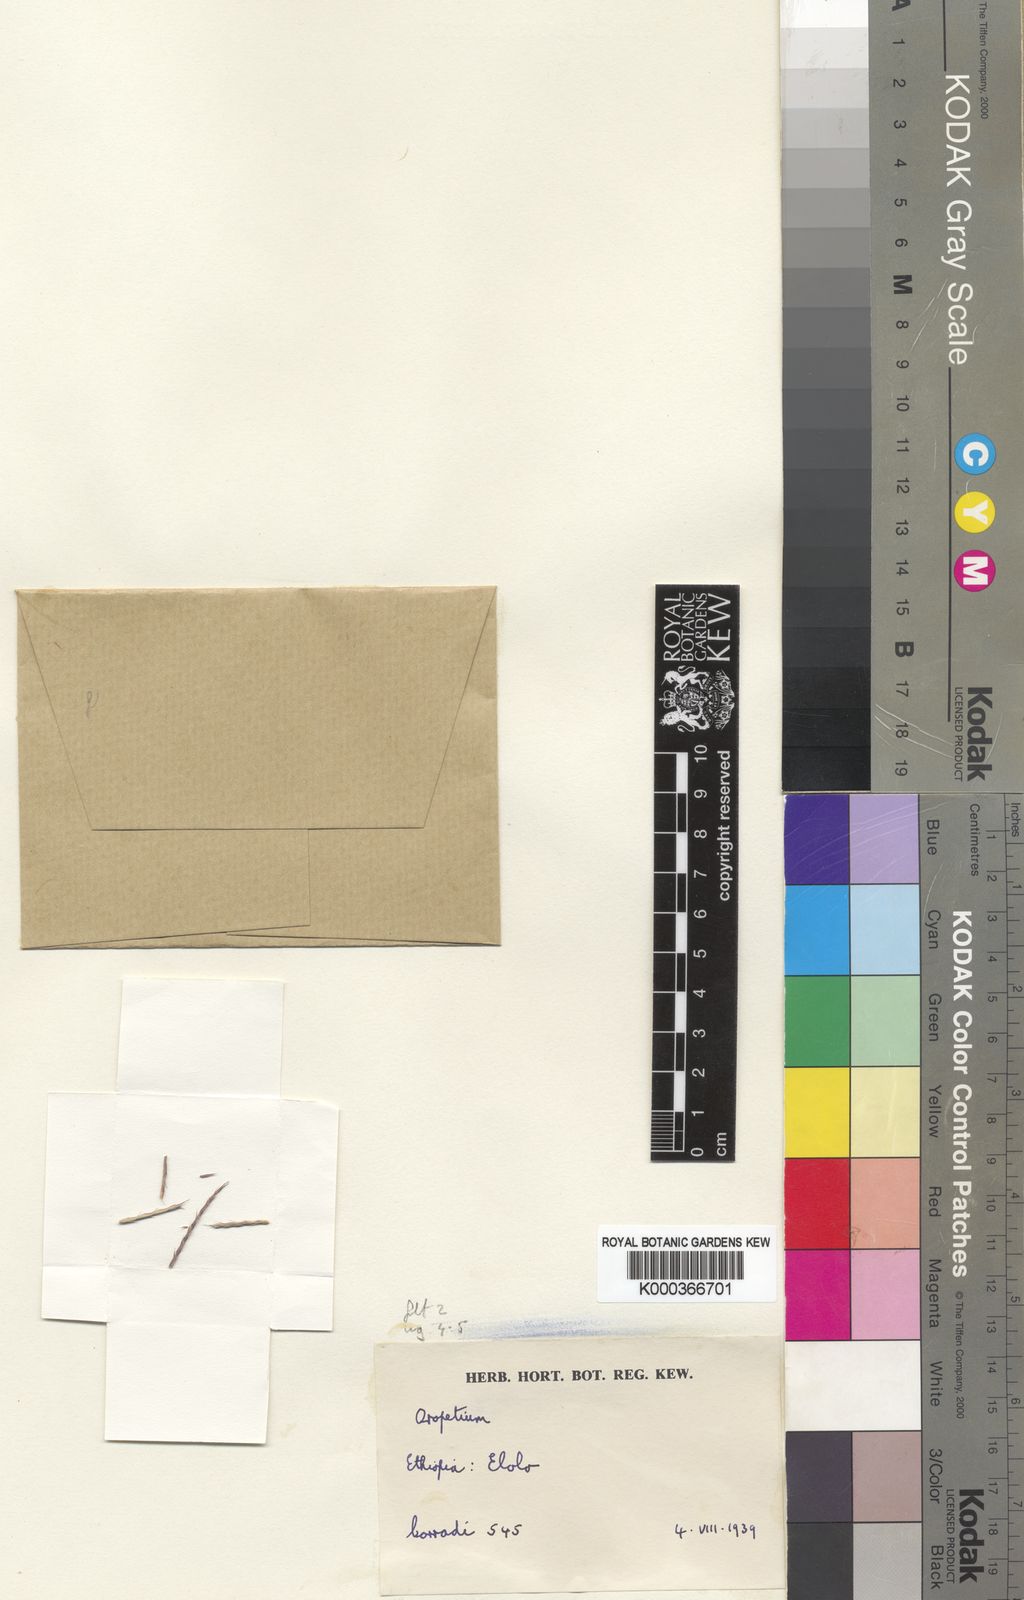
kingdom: Plantae
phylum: Tracheophyta
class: Liliopsida
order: Poales
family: Poaceae
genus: Oropetium
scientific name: Oropetium minimum
